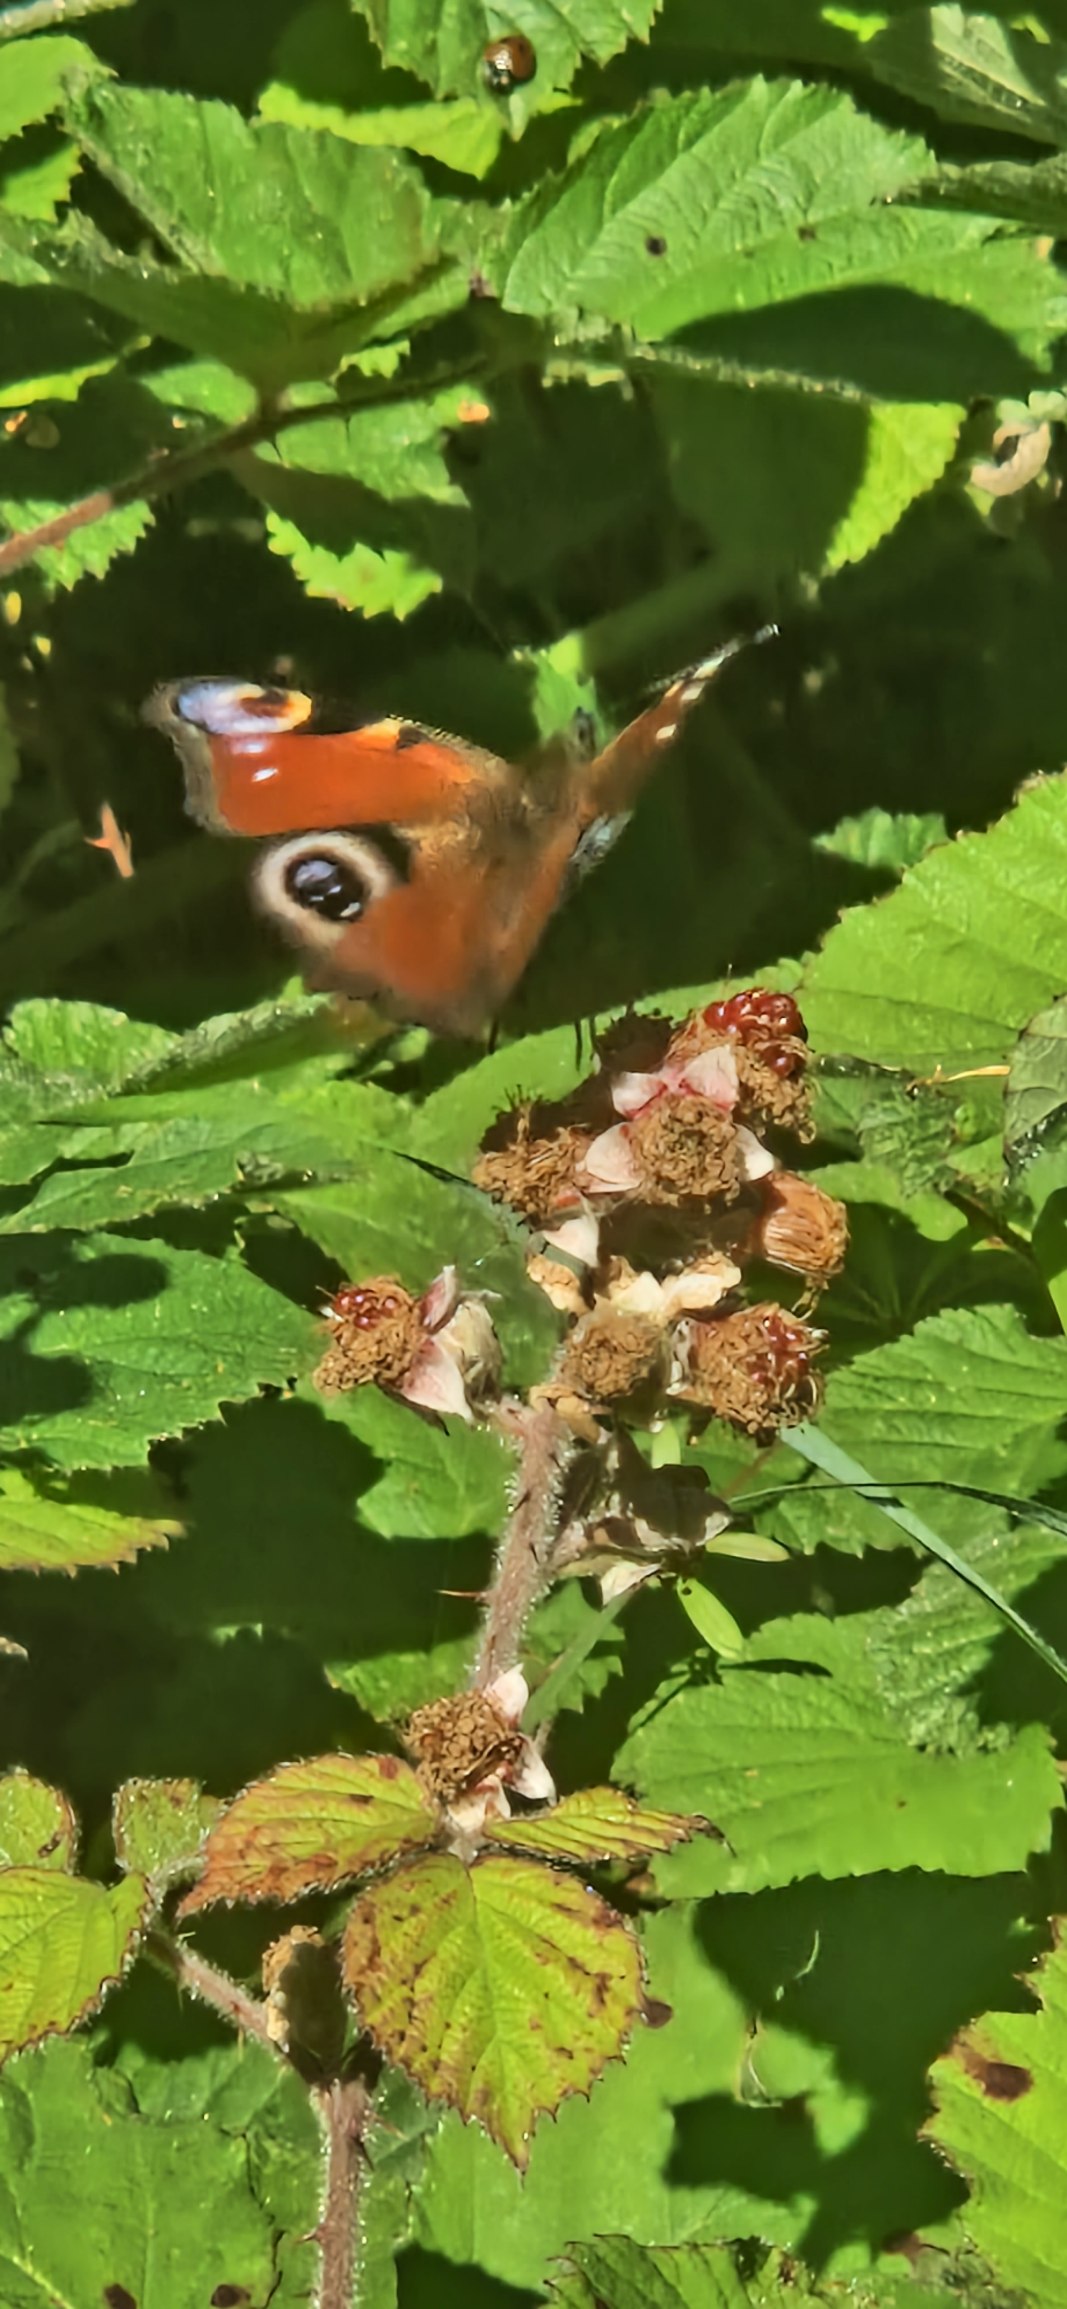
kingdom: Animalia
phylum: Arthropoda
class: Insecta
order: Lepidoptera
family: Nymphalidae
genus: Aglais
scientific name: Aglais io
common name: Dagpåfugleøje
